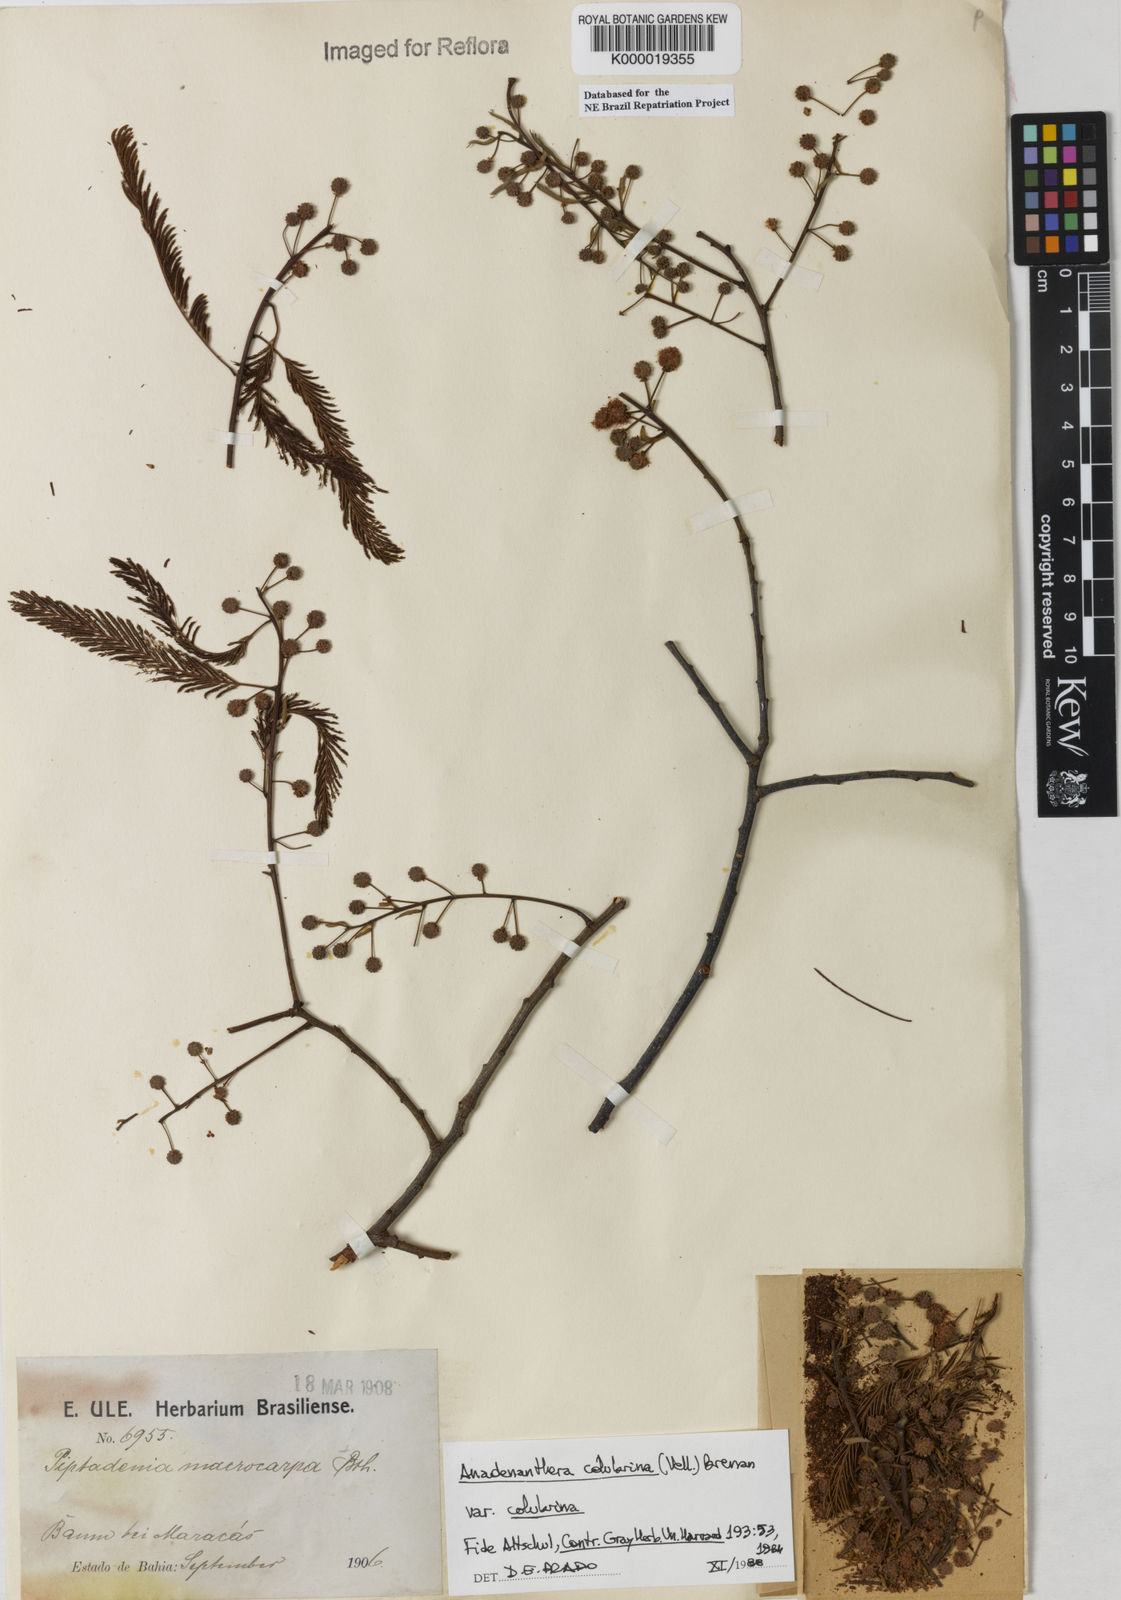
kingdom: Plantae
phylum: Tracheophyta
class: Magnoliopsida
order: Fabales
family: Fabaceae
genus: Anadenanthera
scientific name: Anadenanthera colubrina
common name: Curupay
